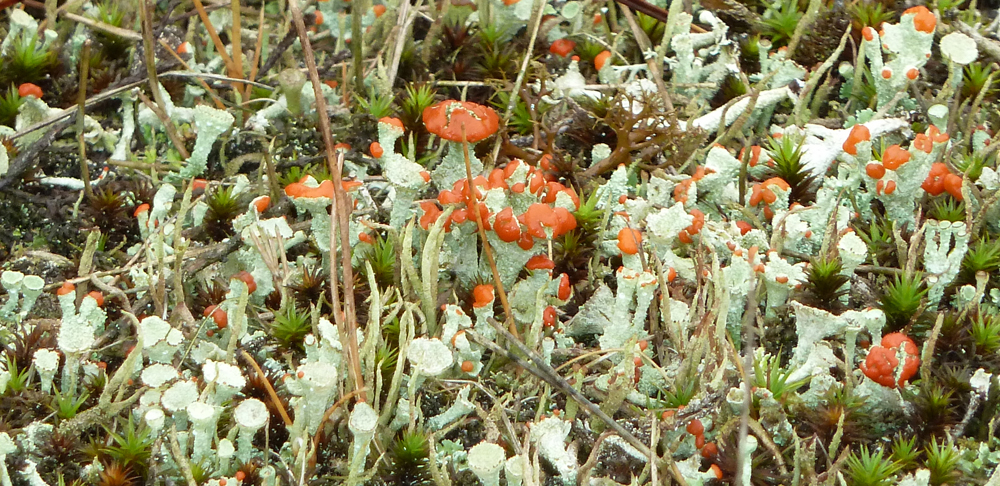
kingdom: Fungi
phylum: Ascomycota
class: Lecanoromycetes
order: Lecanorales
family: Cladoniaceae
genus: Cladonia
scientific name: Cladonia coccifera
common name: Scarlet-cup lichen
